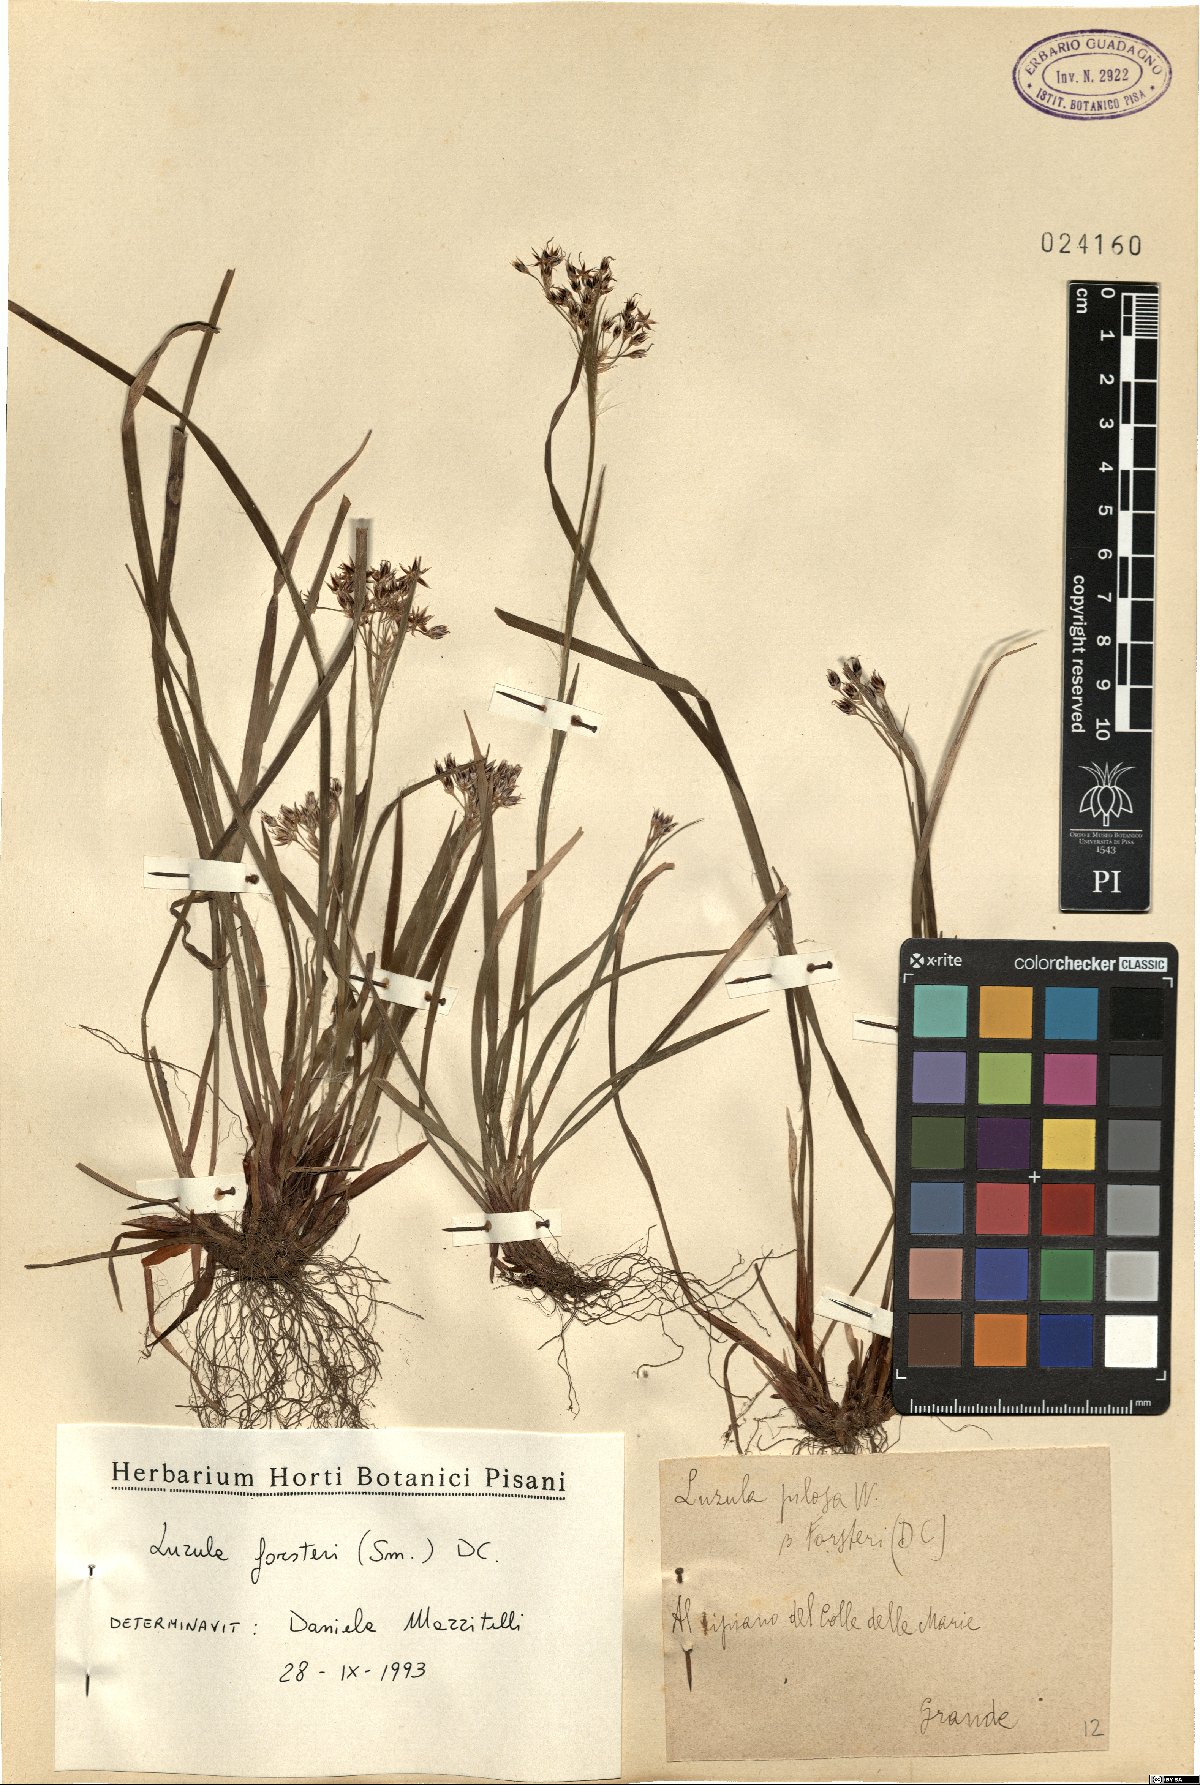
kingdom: Plantae
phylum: Tracheophyta
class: Liliopsida
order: Poales
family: Juncaceae
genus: Luzula
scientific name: Luzula forsteri
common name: Southern wood-rush
